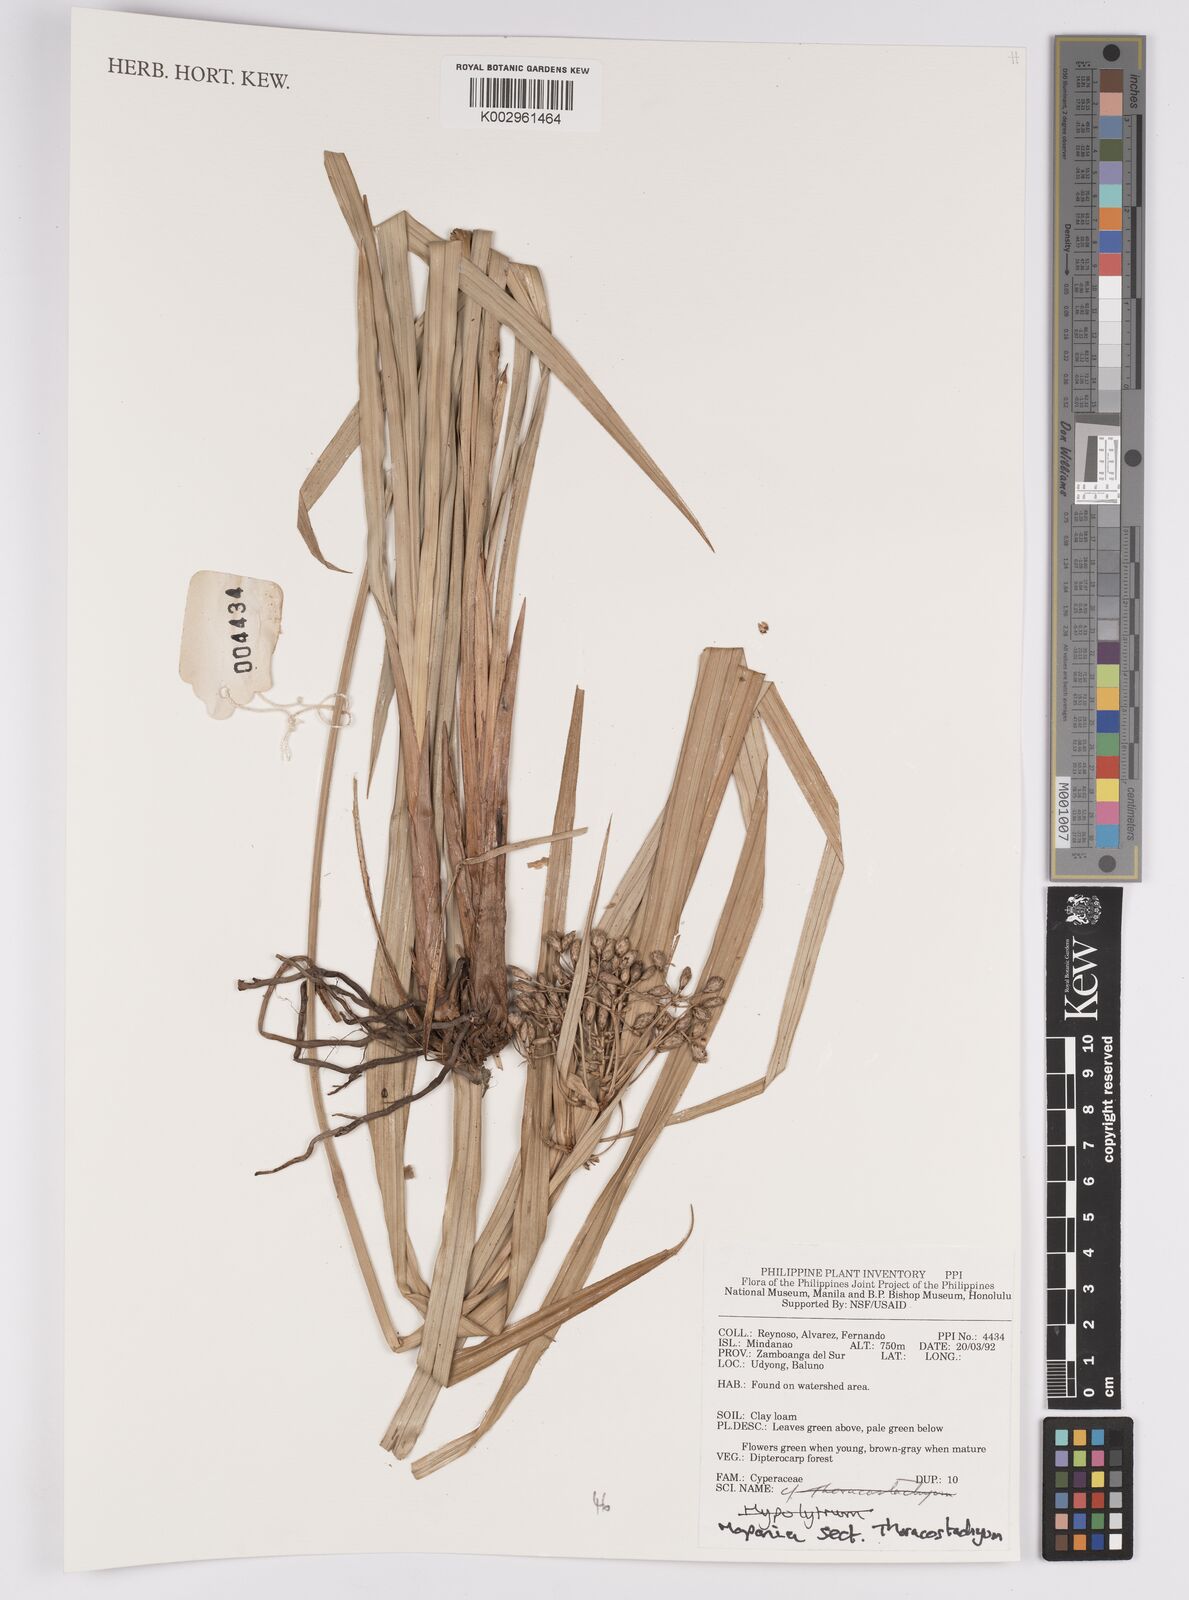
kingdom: Plantae
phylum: Tracheophyta
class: Liliopsida
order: Poales
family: Cyperaceae
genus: Mapania
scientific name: Mapania
